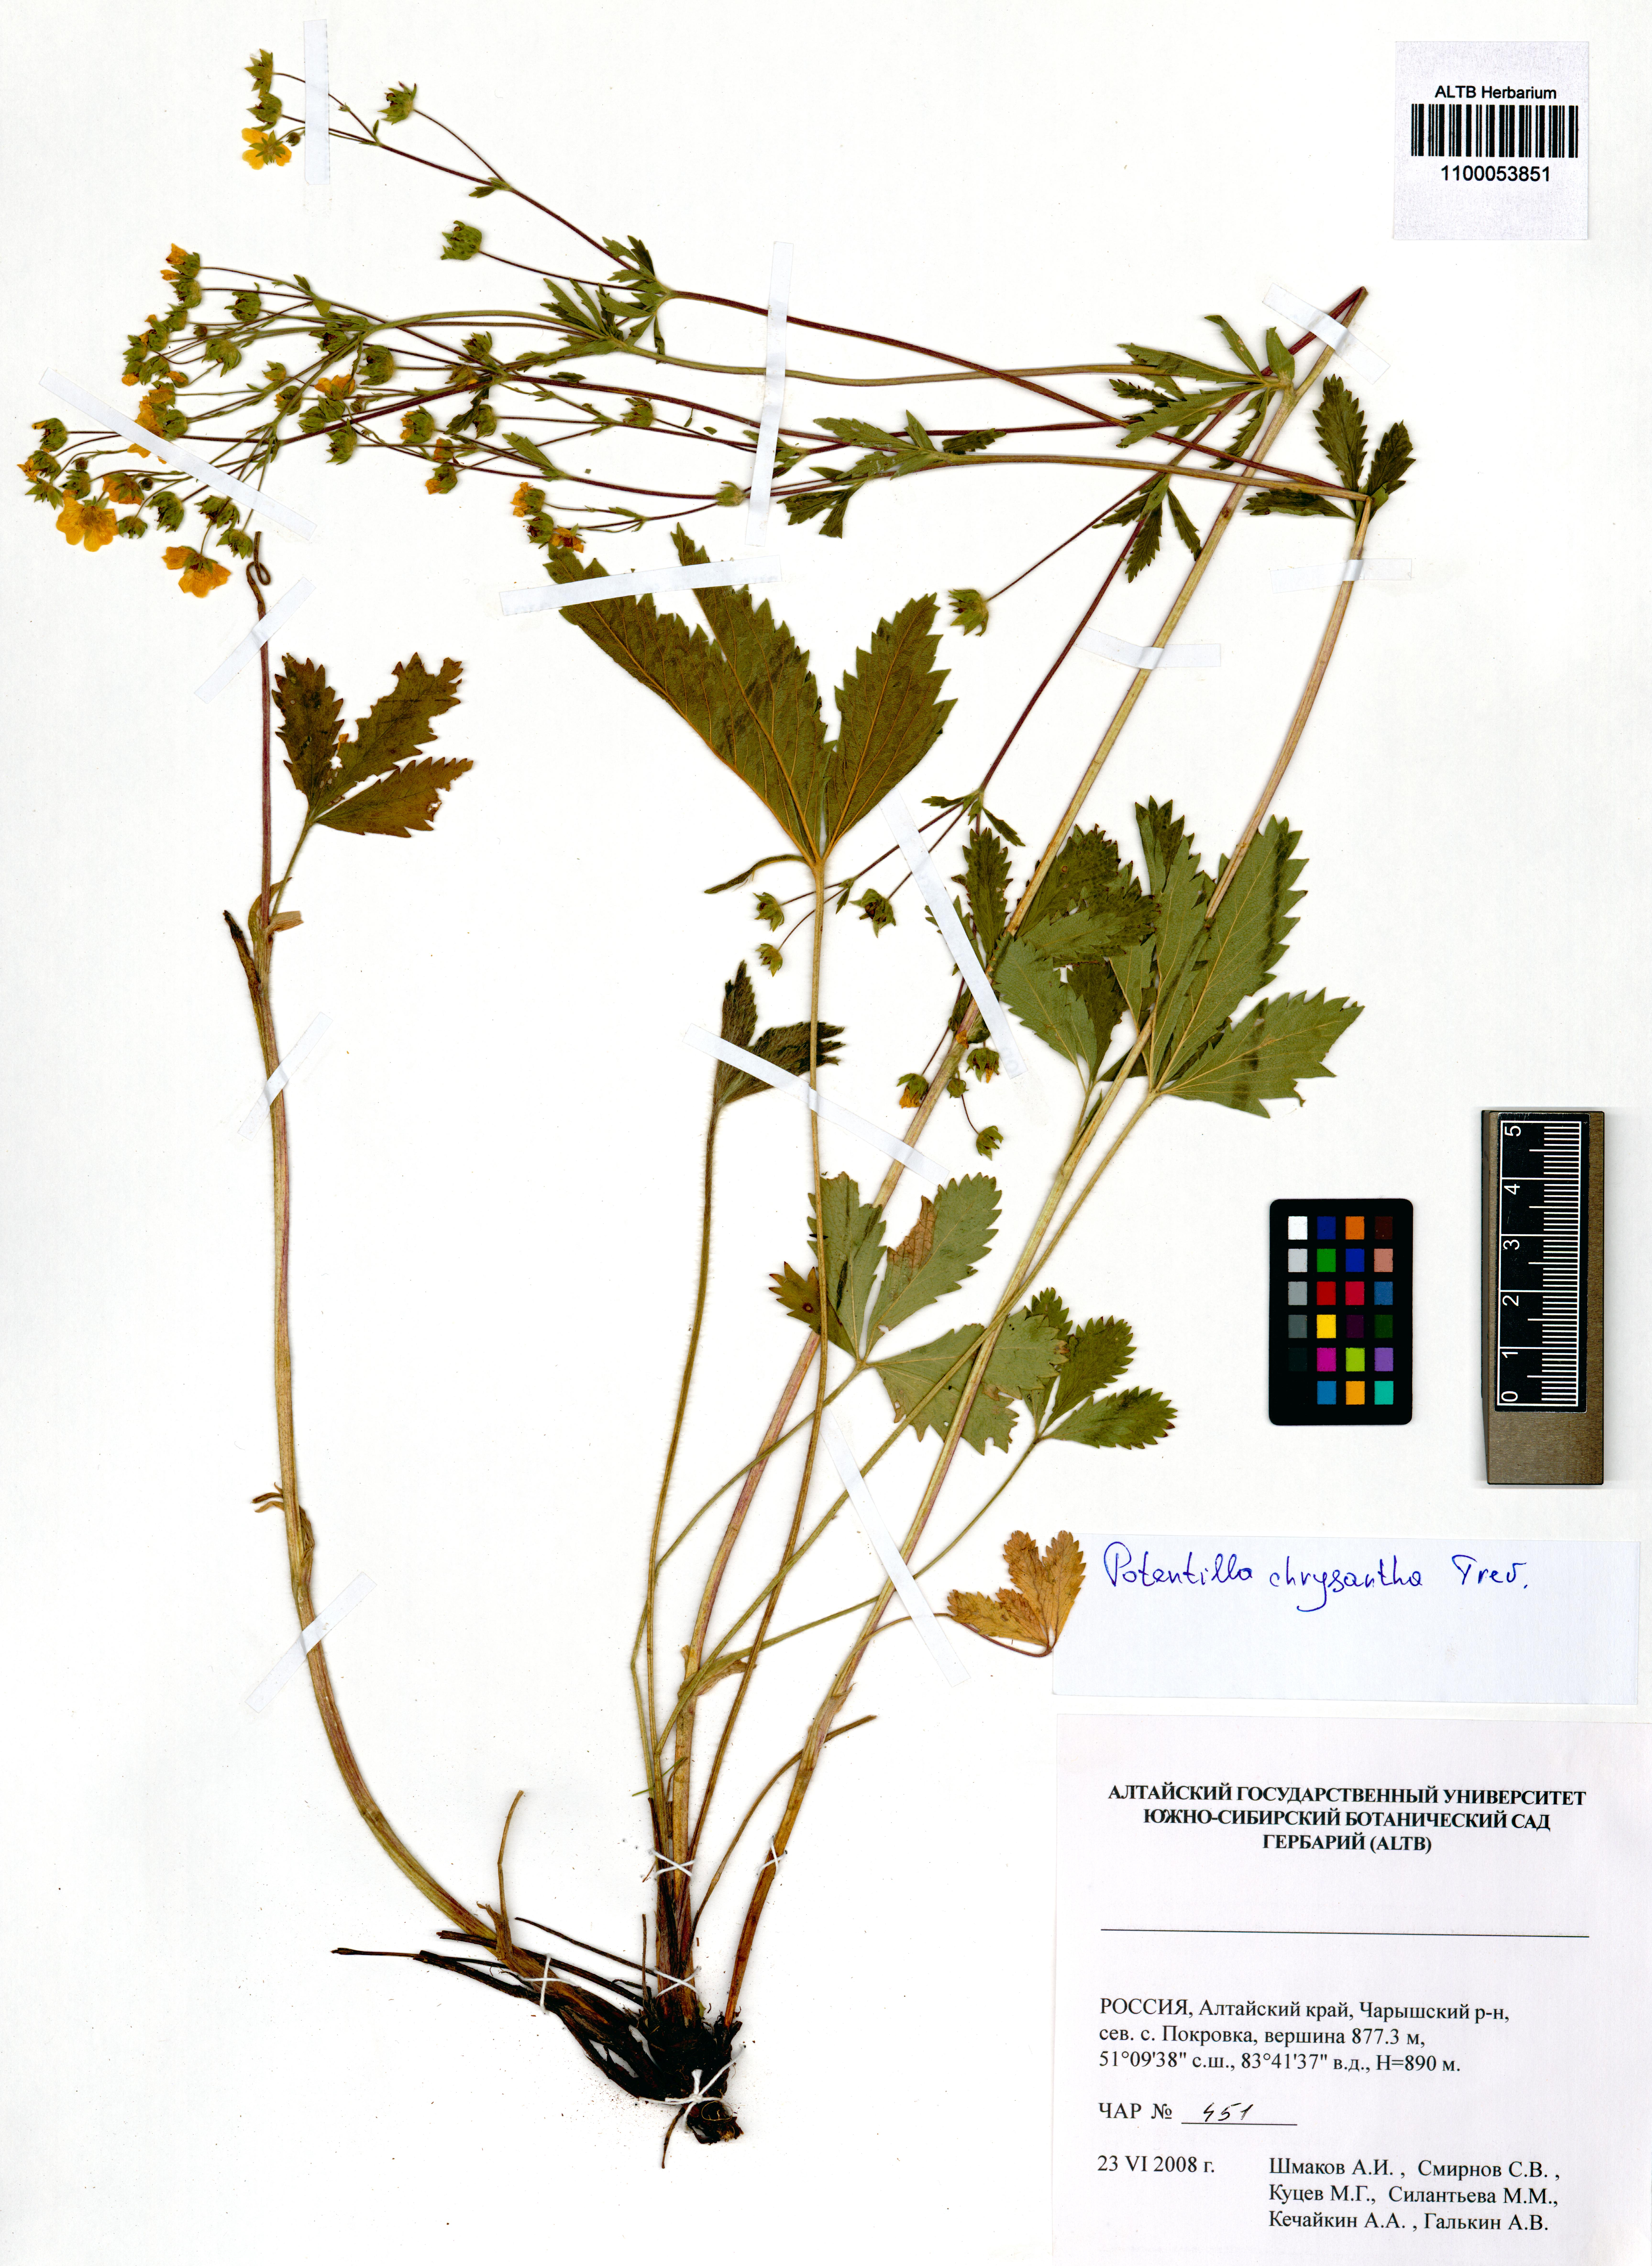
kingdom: Plantae
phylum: Tracheophyta
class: Magnoliopsida
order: Rosales
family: Rosaceae
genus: Potentilla
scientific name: Potentilla chrysantha
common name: Thuringian cinquefoil
